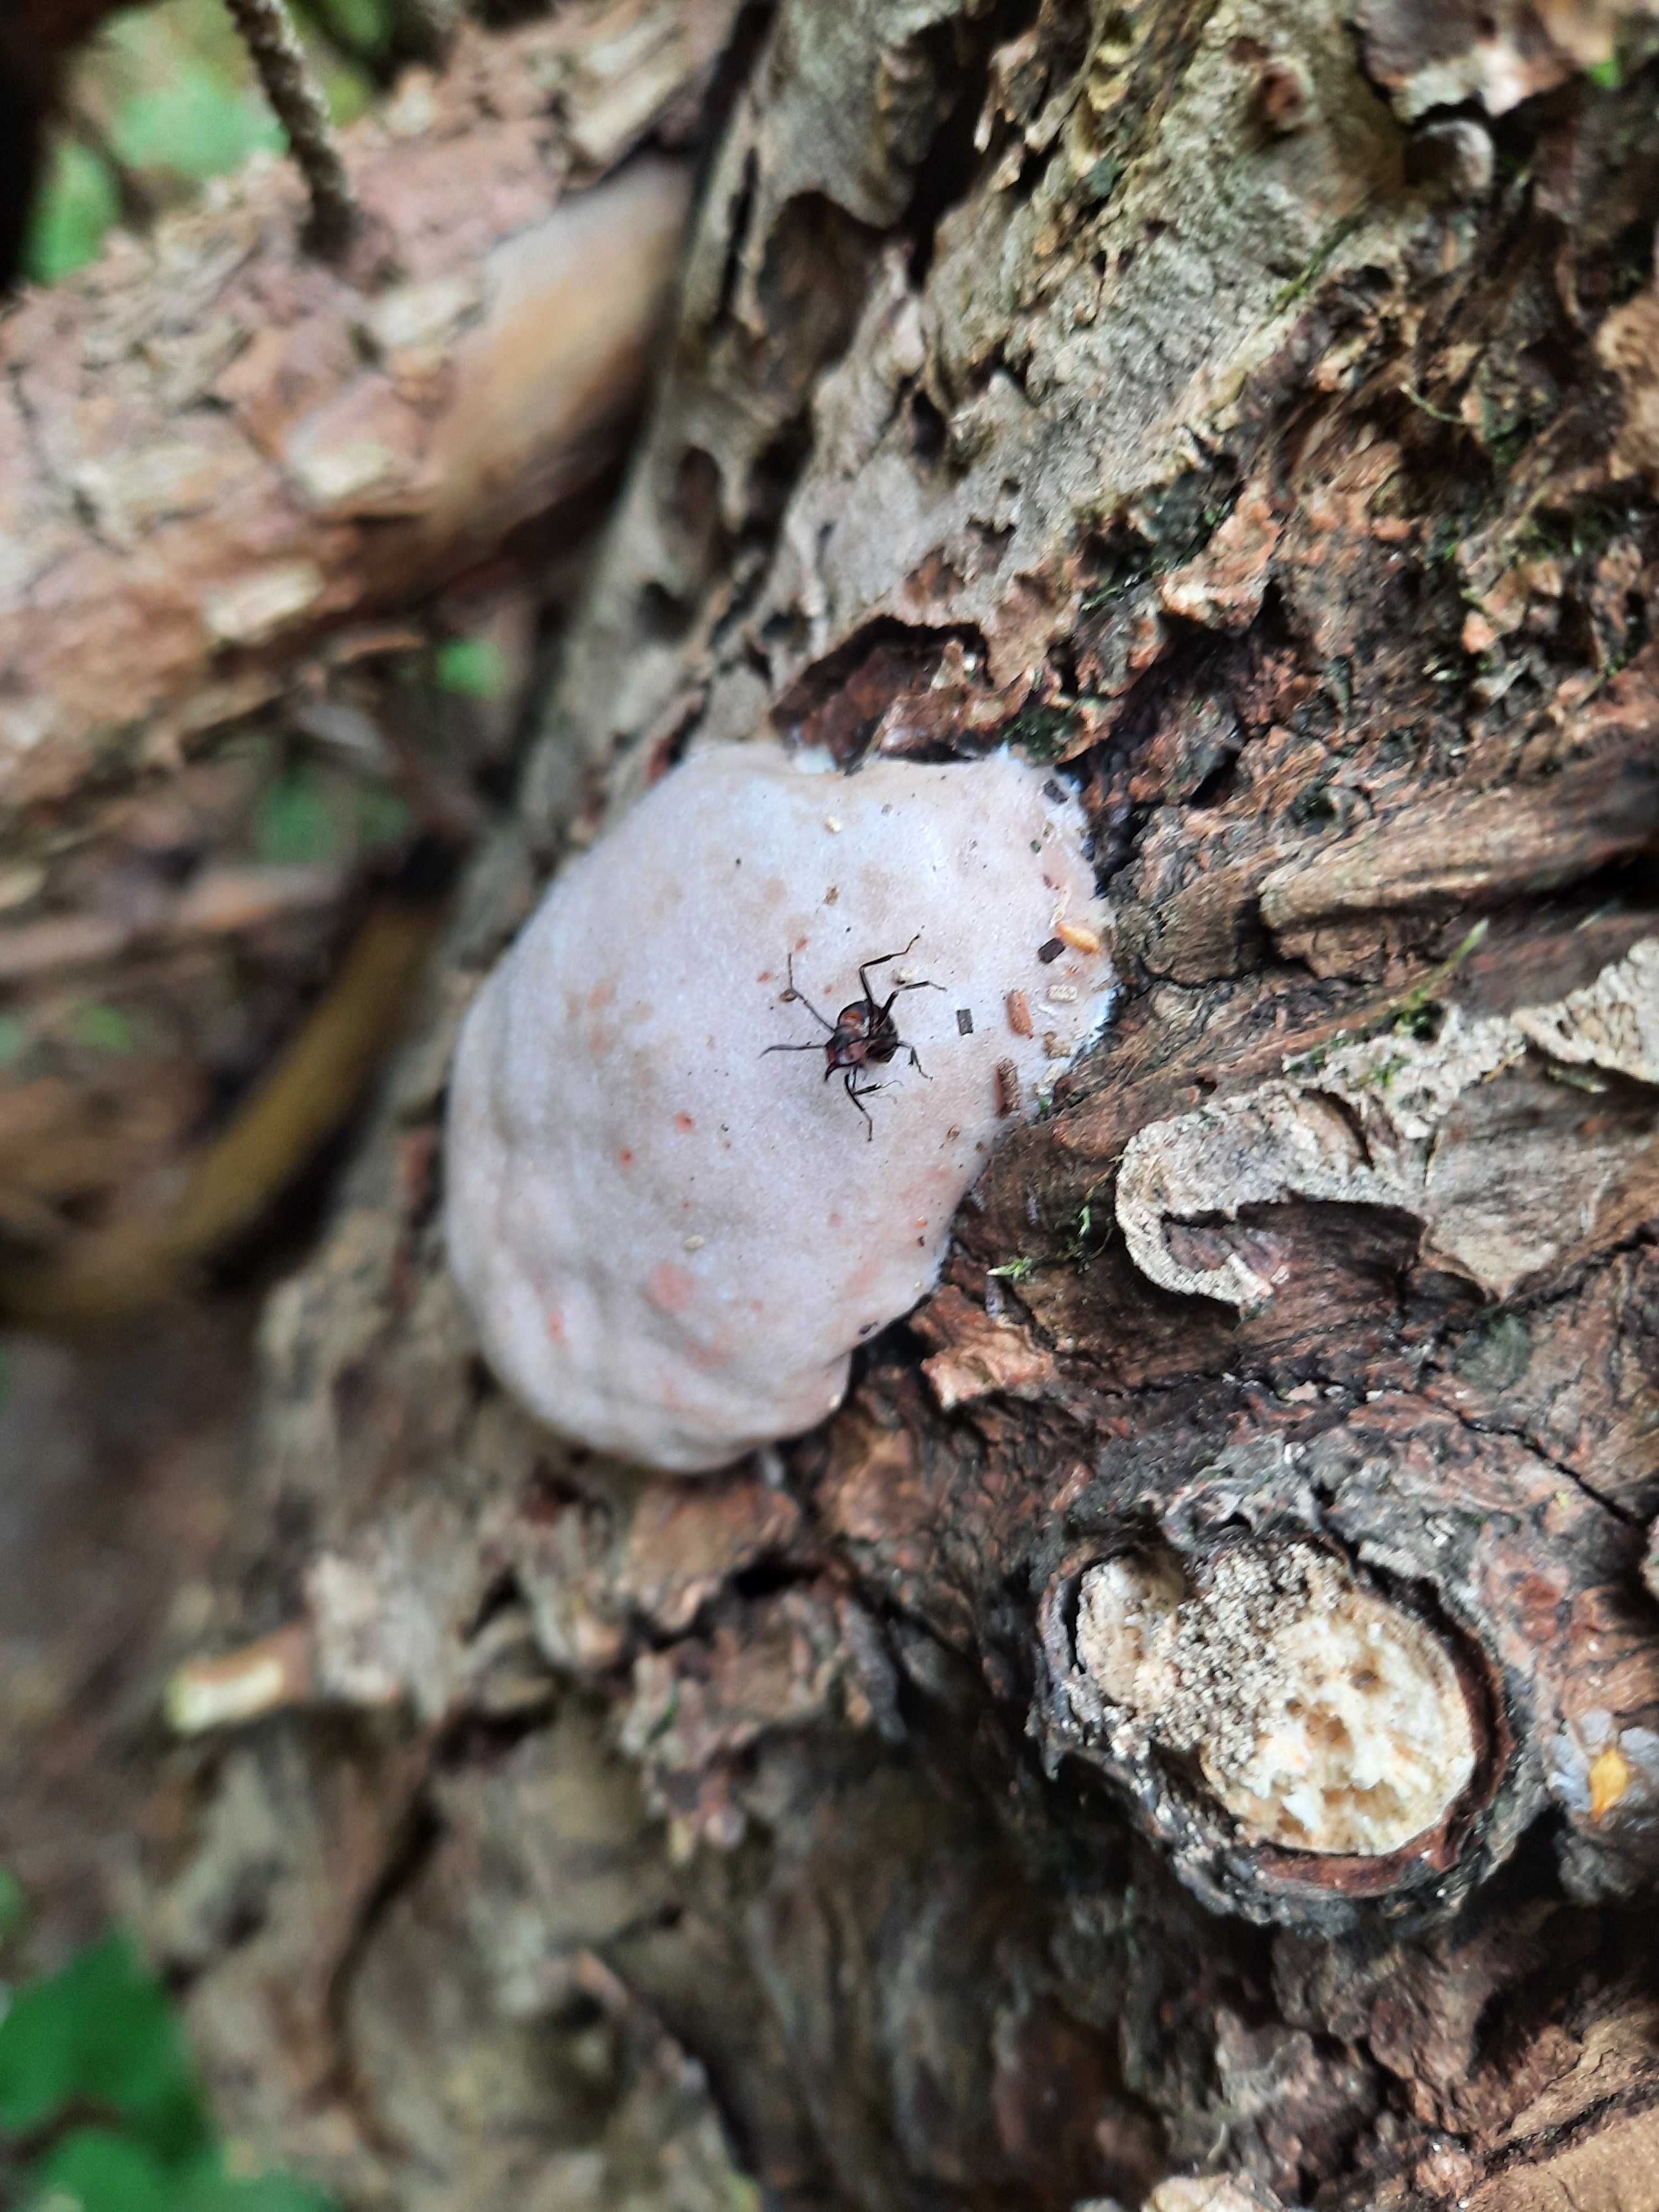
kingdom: Protozoa
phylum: Mycetozoa
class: Myxomycetes
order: Cribrariales
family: Tubiferaceae
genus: Reticularia
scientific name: Reticularia lycoperdon
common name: skinnende støvpude
